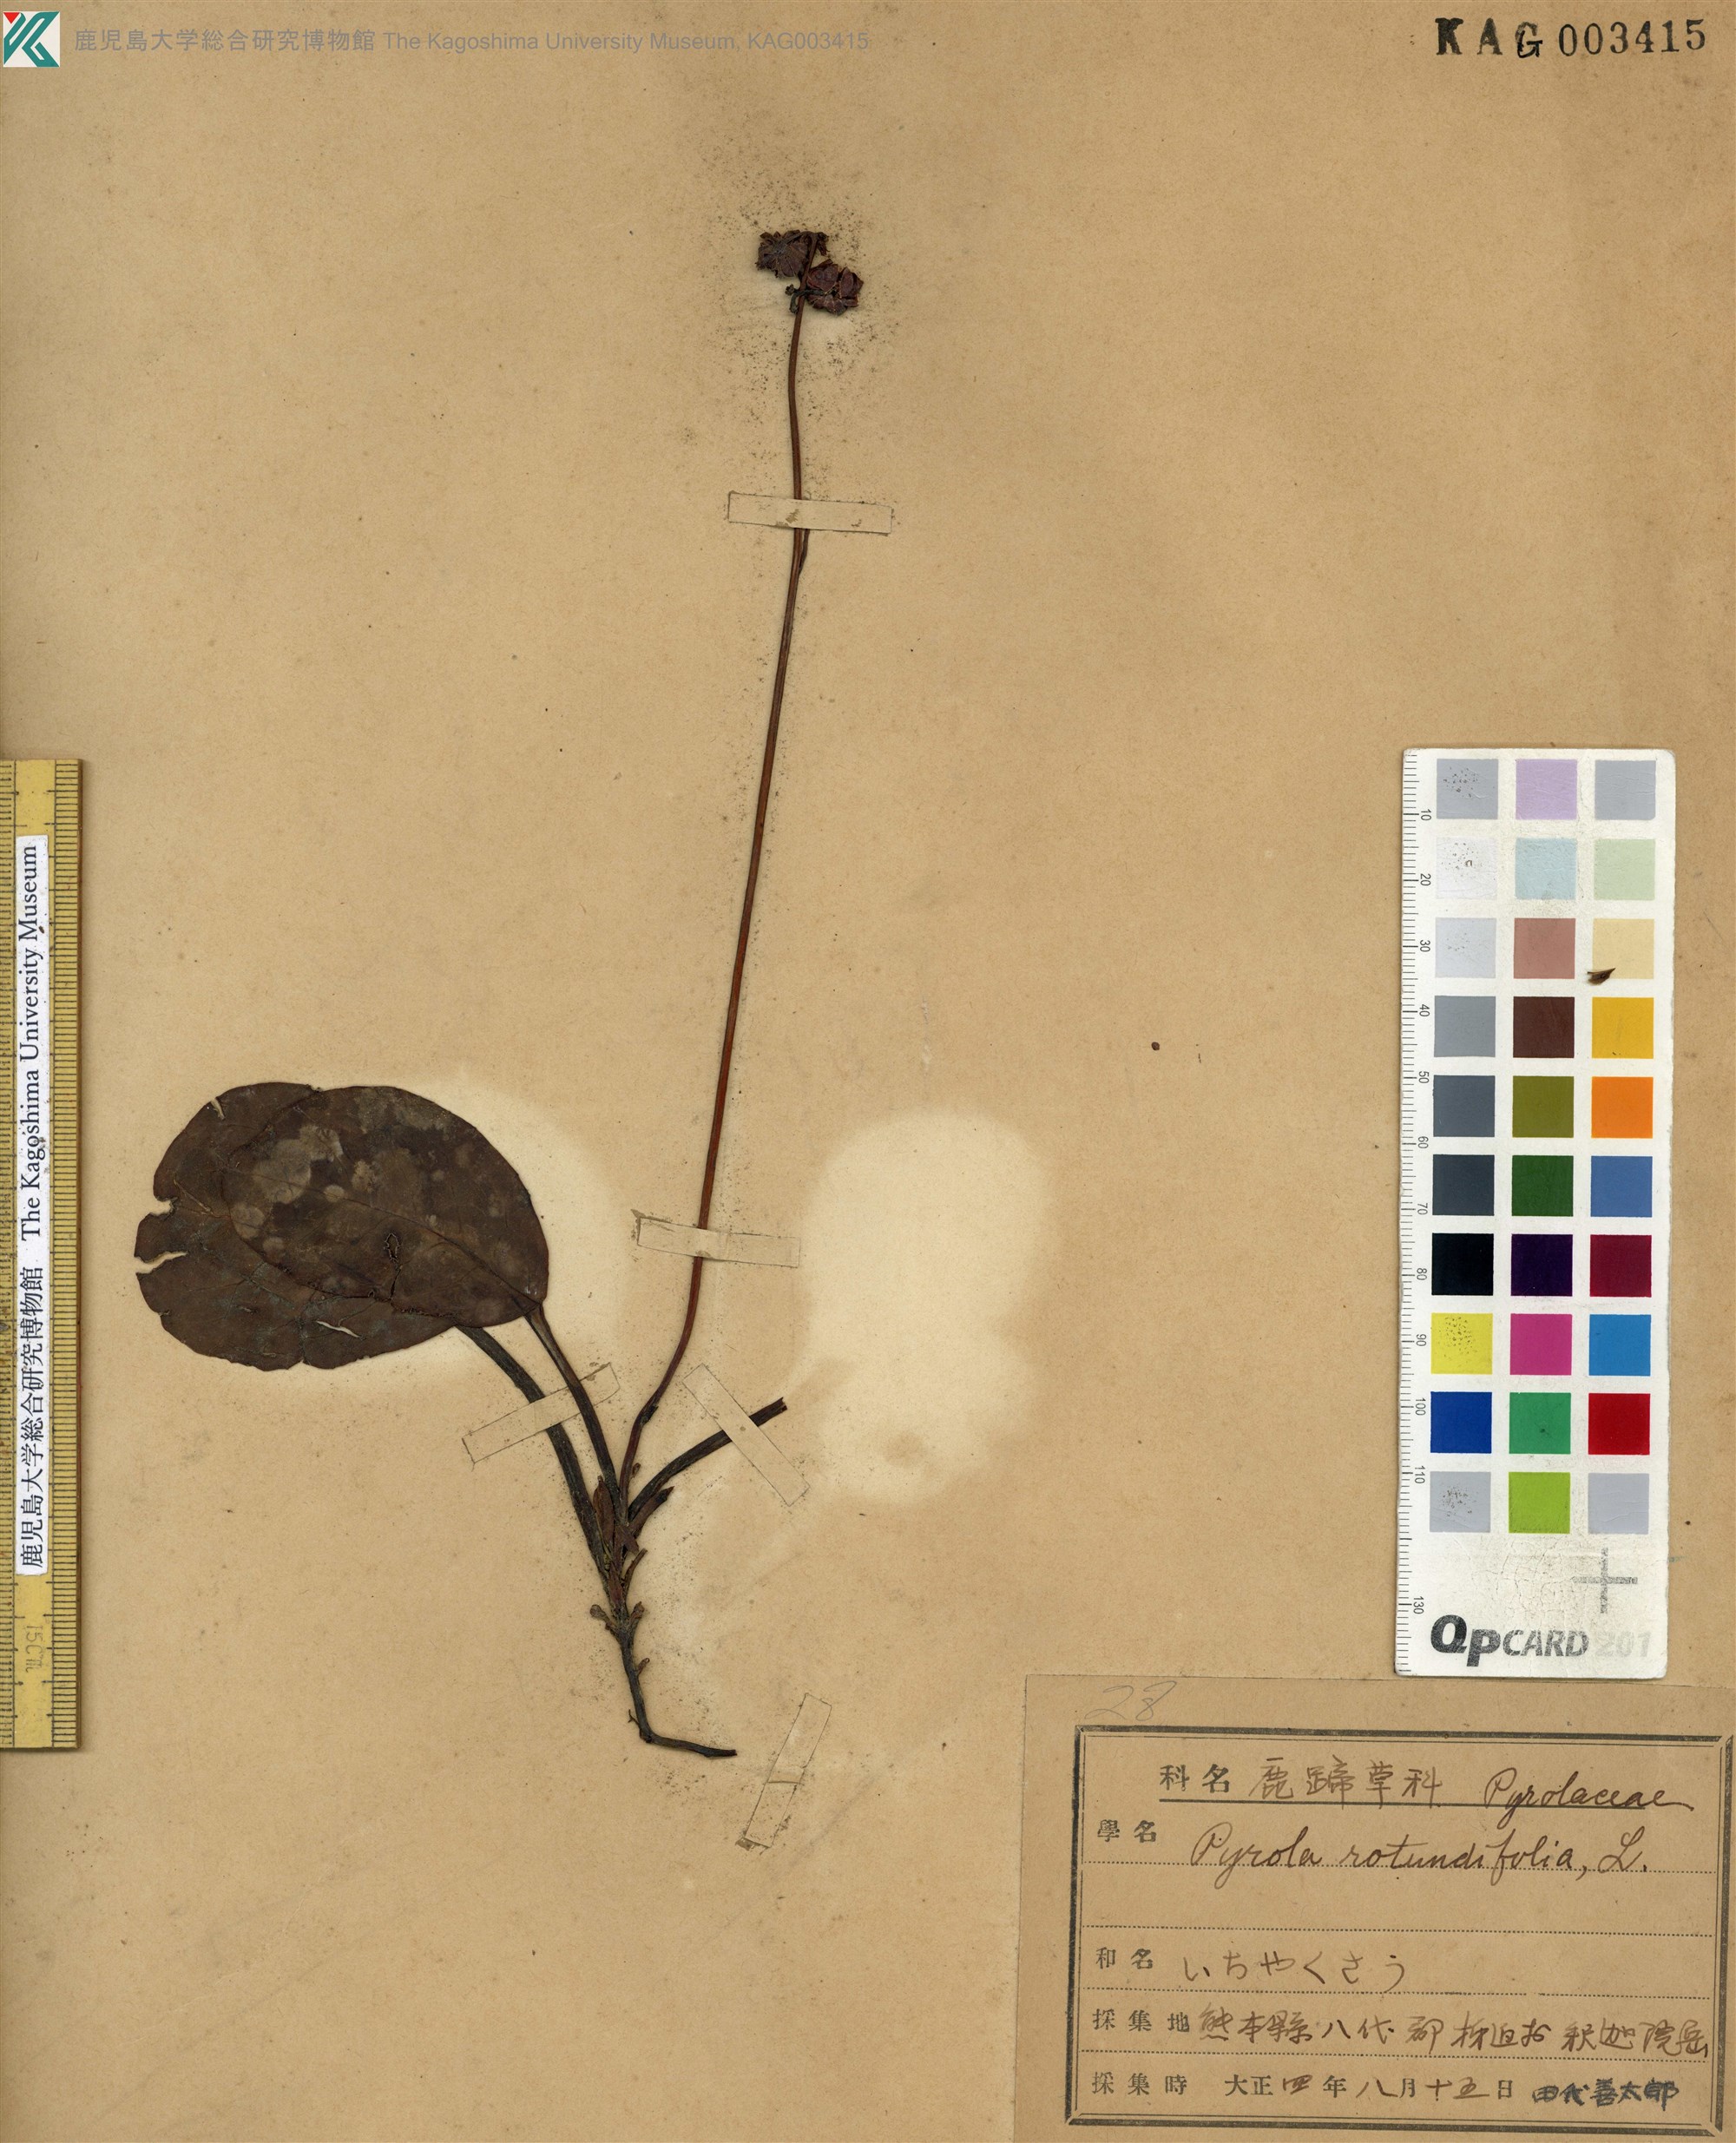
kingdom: Plantae
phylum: Tracheophyta
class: Magnoliopsida
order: Ericales
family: Ericaceae
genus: Pyrola
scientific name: Pyrola japonica
